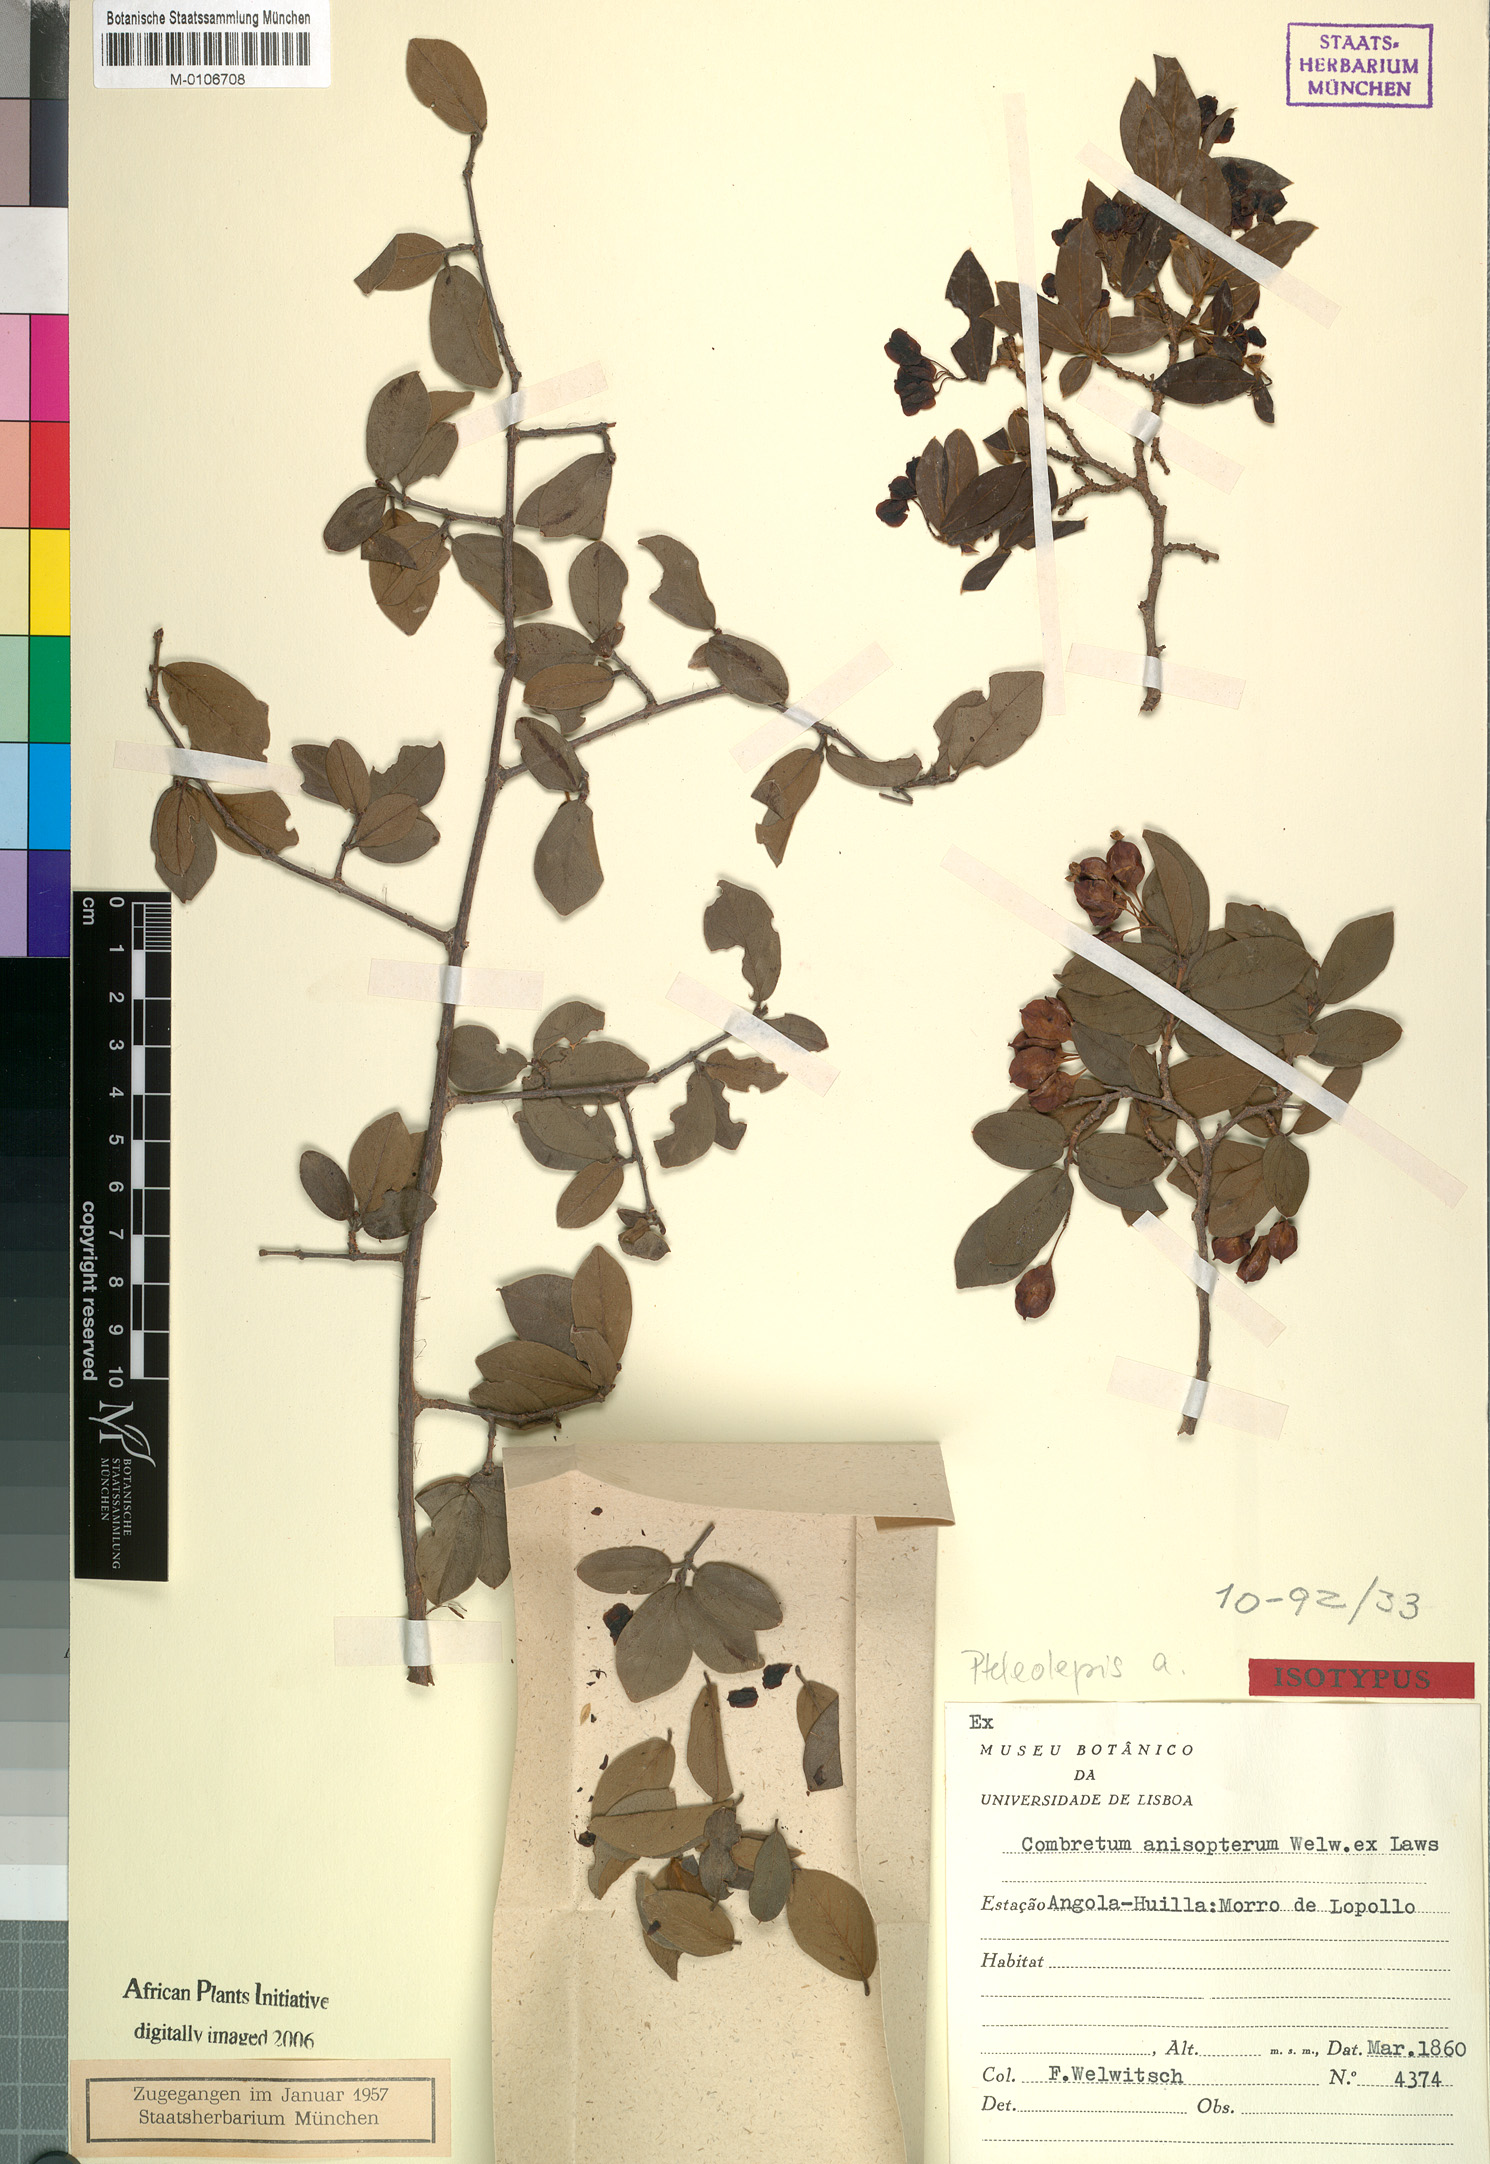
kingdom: Plantae
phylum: Tracheophyta
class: Magnoliopsida
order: Myrtales
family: Combretaceae
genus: Terminalia
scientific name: Terminalia anisoptera
